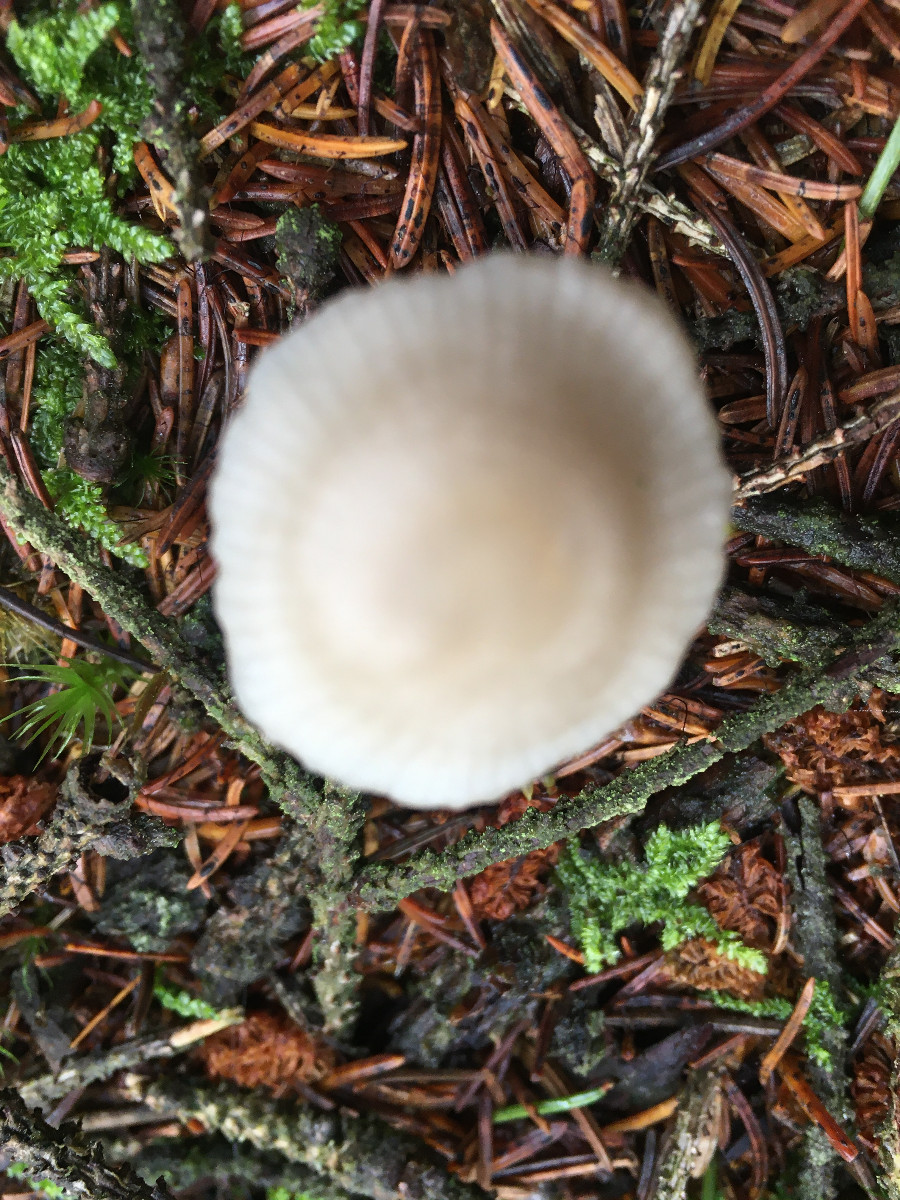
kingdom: Fungi
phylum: Basidiomycota
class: Agaricomycetes
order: Agaricales
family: Mycenaceae
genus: Mycena
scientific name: Mycena galericulata
